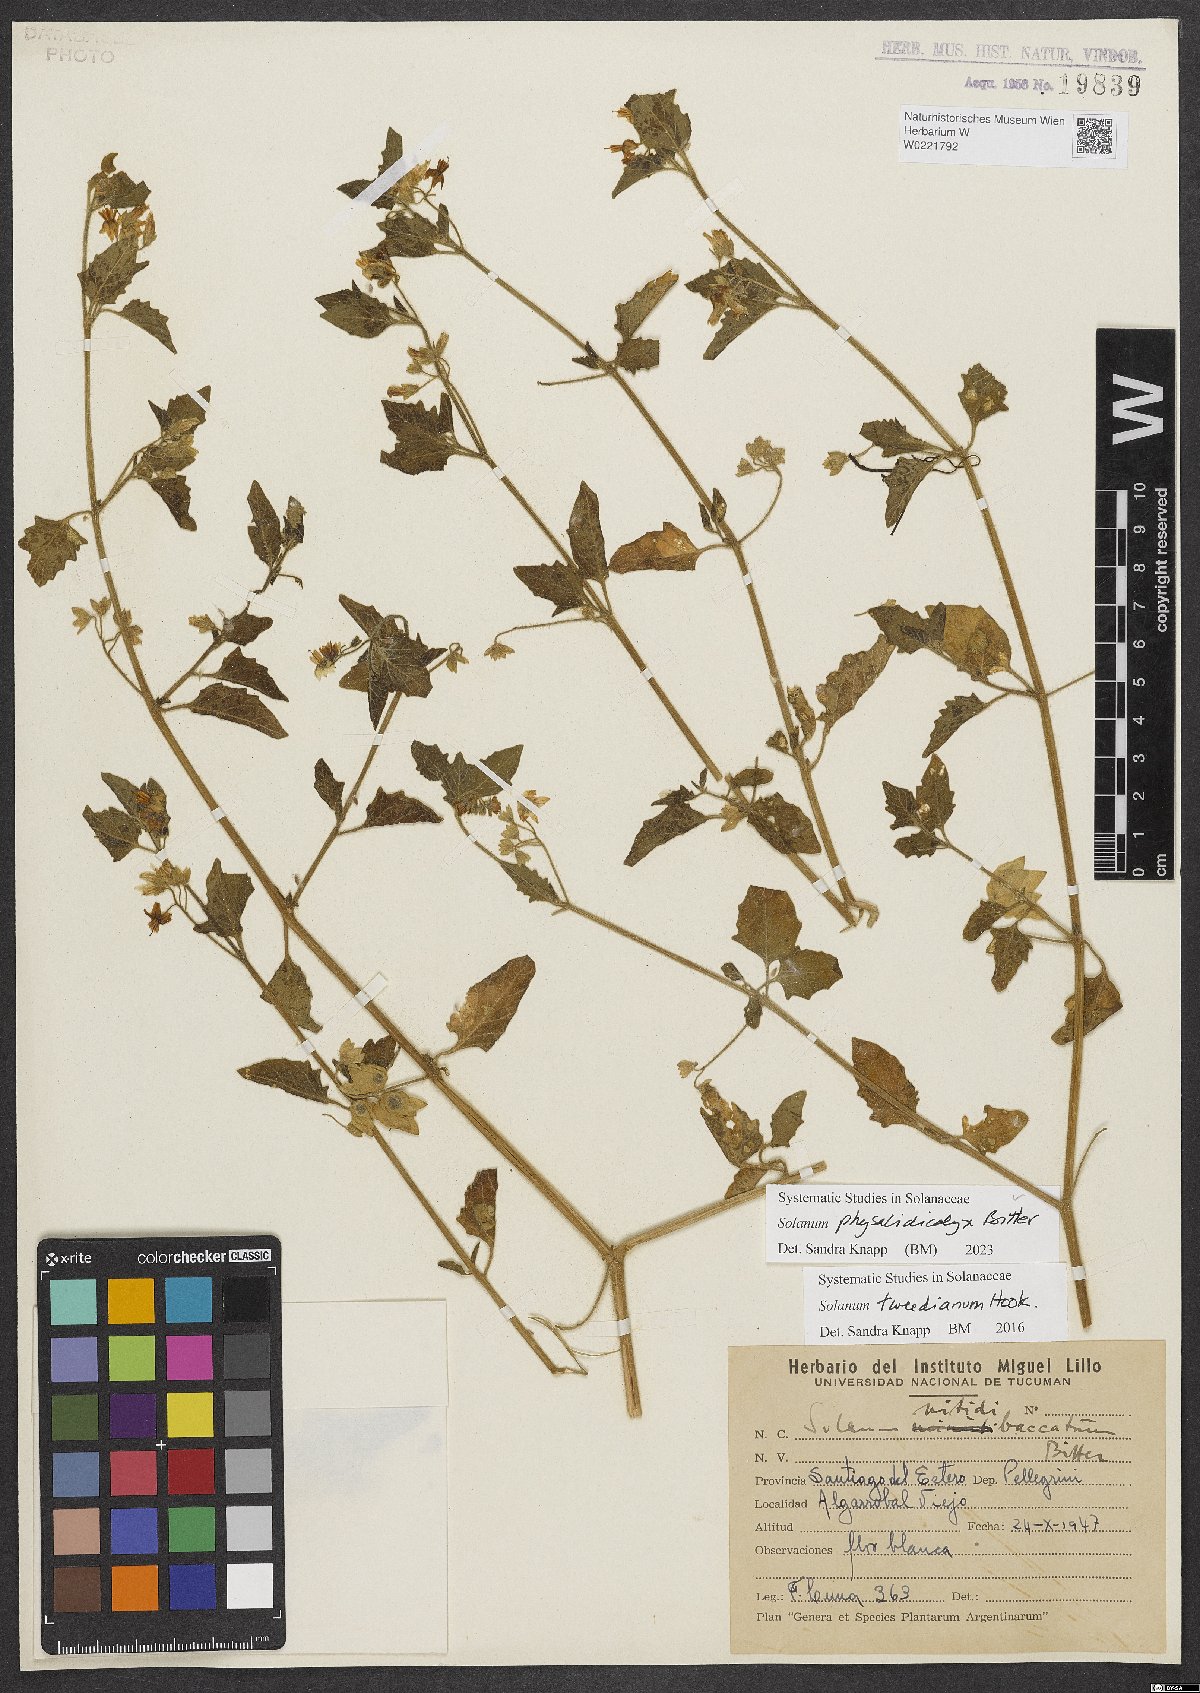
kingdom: Plantae
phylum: Tracheophyta
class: Magnoliopsida
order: Solanales
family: Solanaceae
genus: Solanum
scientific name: Solanum physalidicalyx
